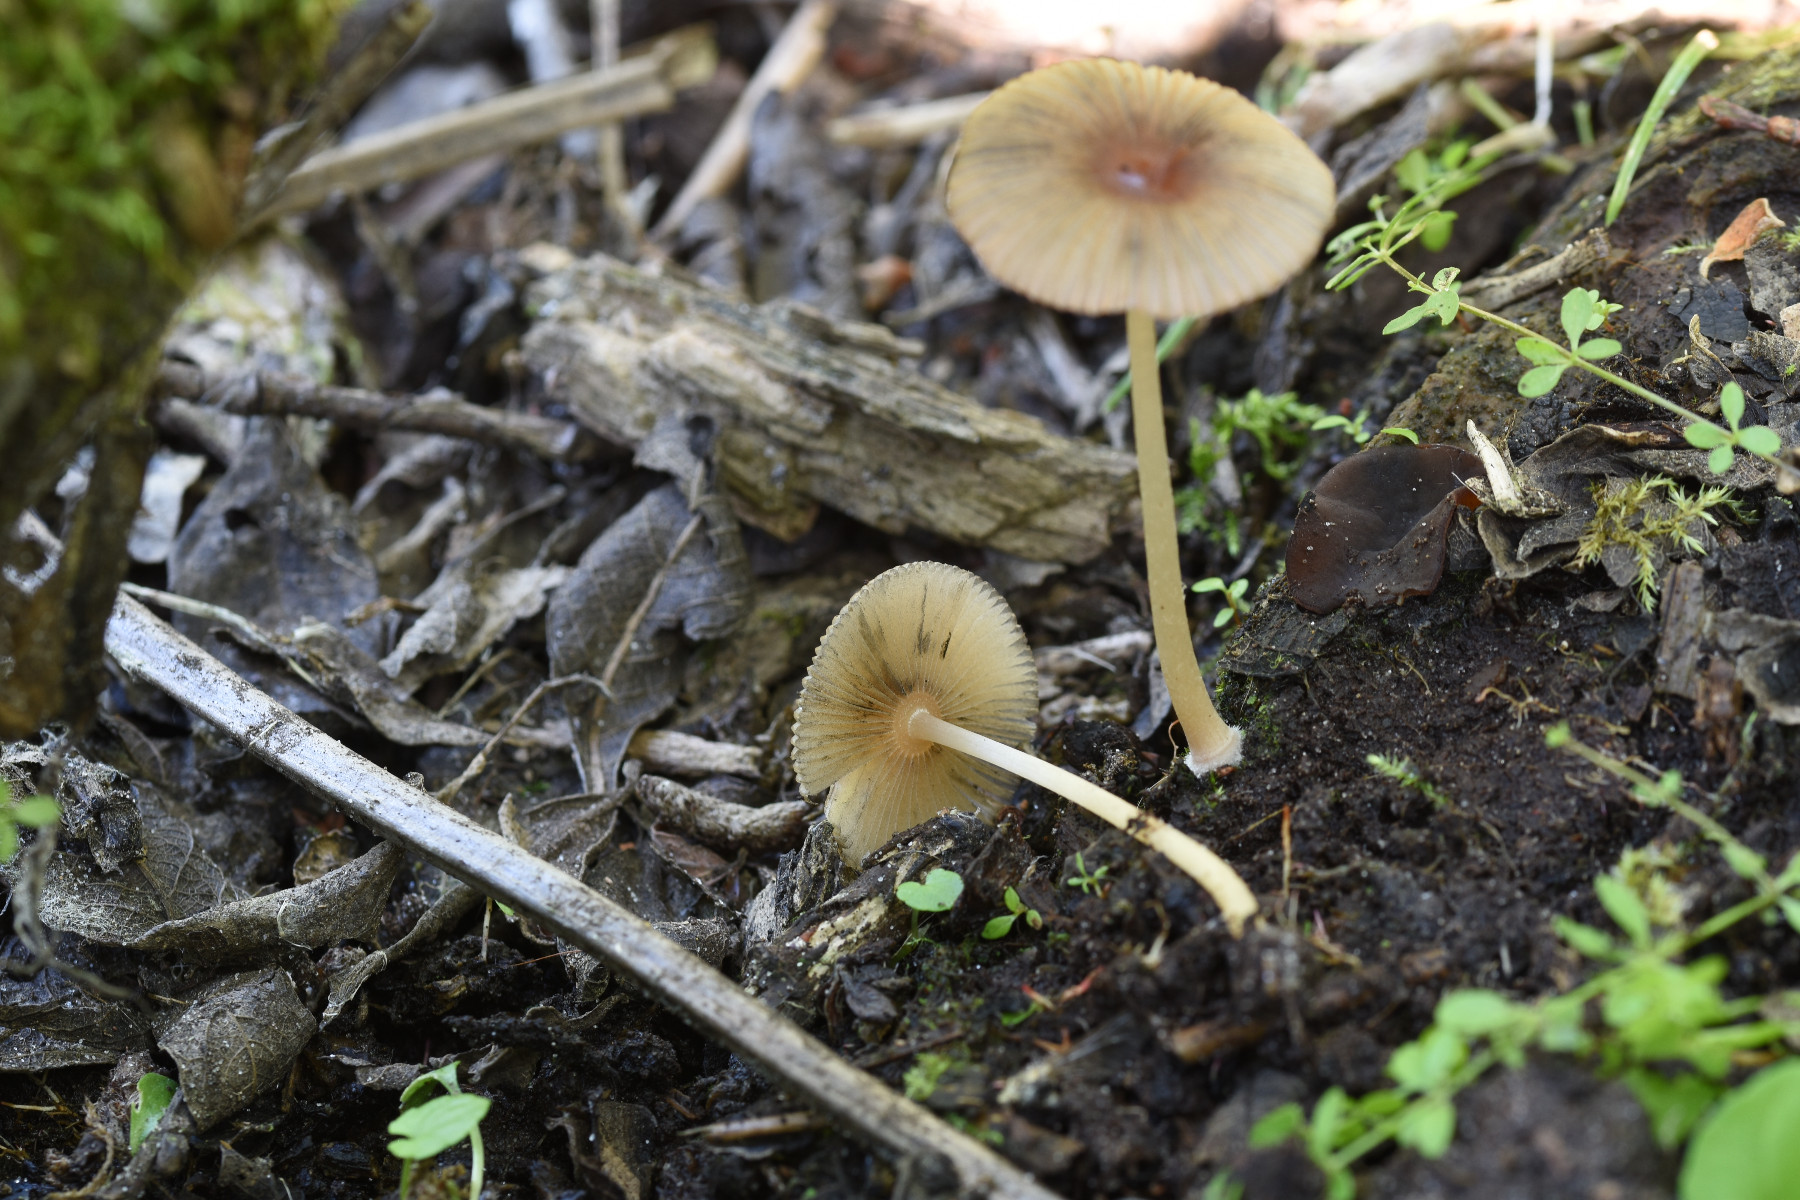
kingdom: Fungi
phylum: Basidiomycota
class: Agaricomycetes
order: Agaricales
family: Psathyrellaceae
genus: Parasola
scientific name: Parasola kuehneri
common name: skygge-hjulhat
